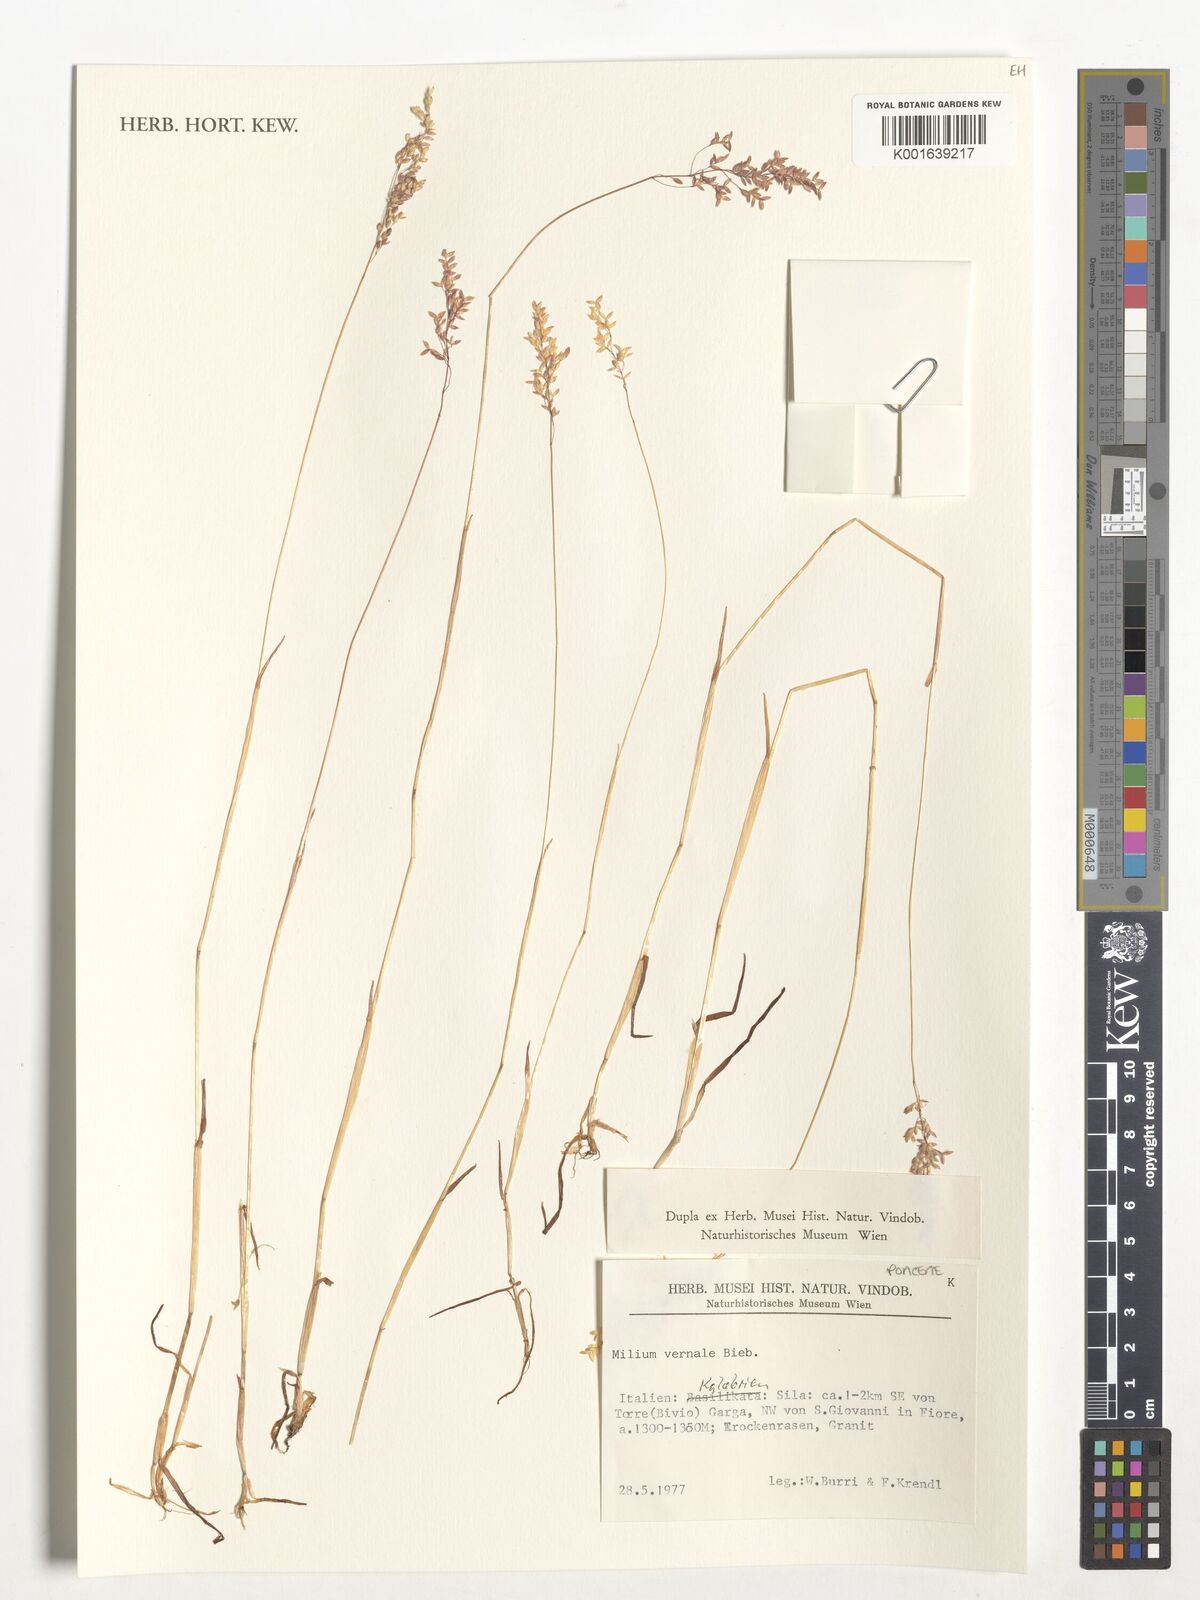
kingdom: Plantae
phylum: Tracheophyta
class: Liliopsida
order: Poales
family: Poaceae
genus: Milium
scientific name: Milium vernale
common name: Early millet
